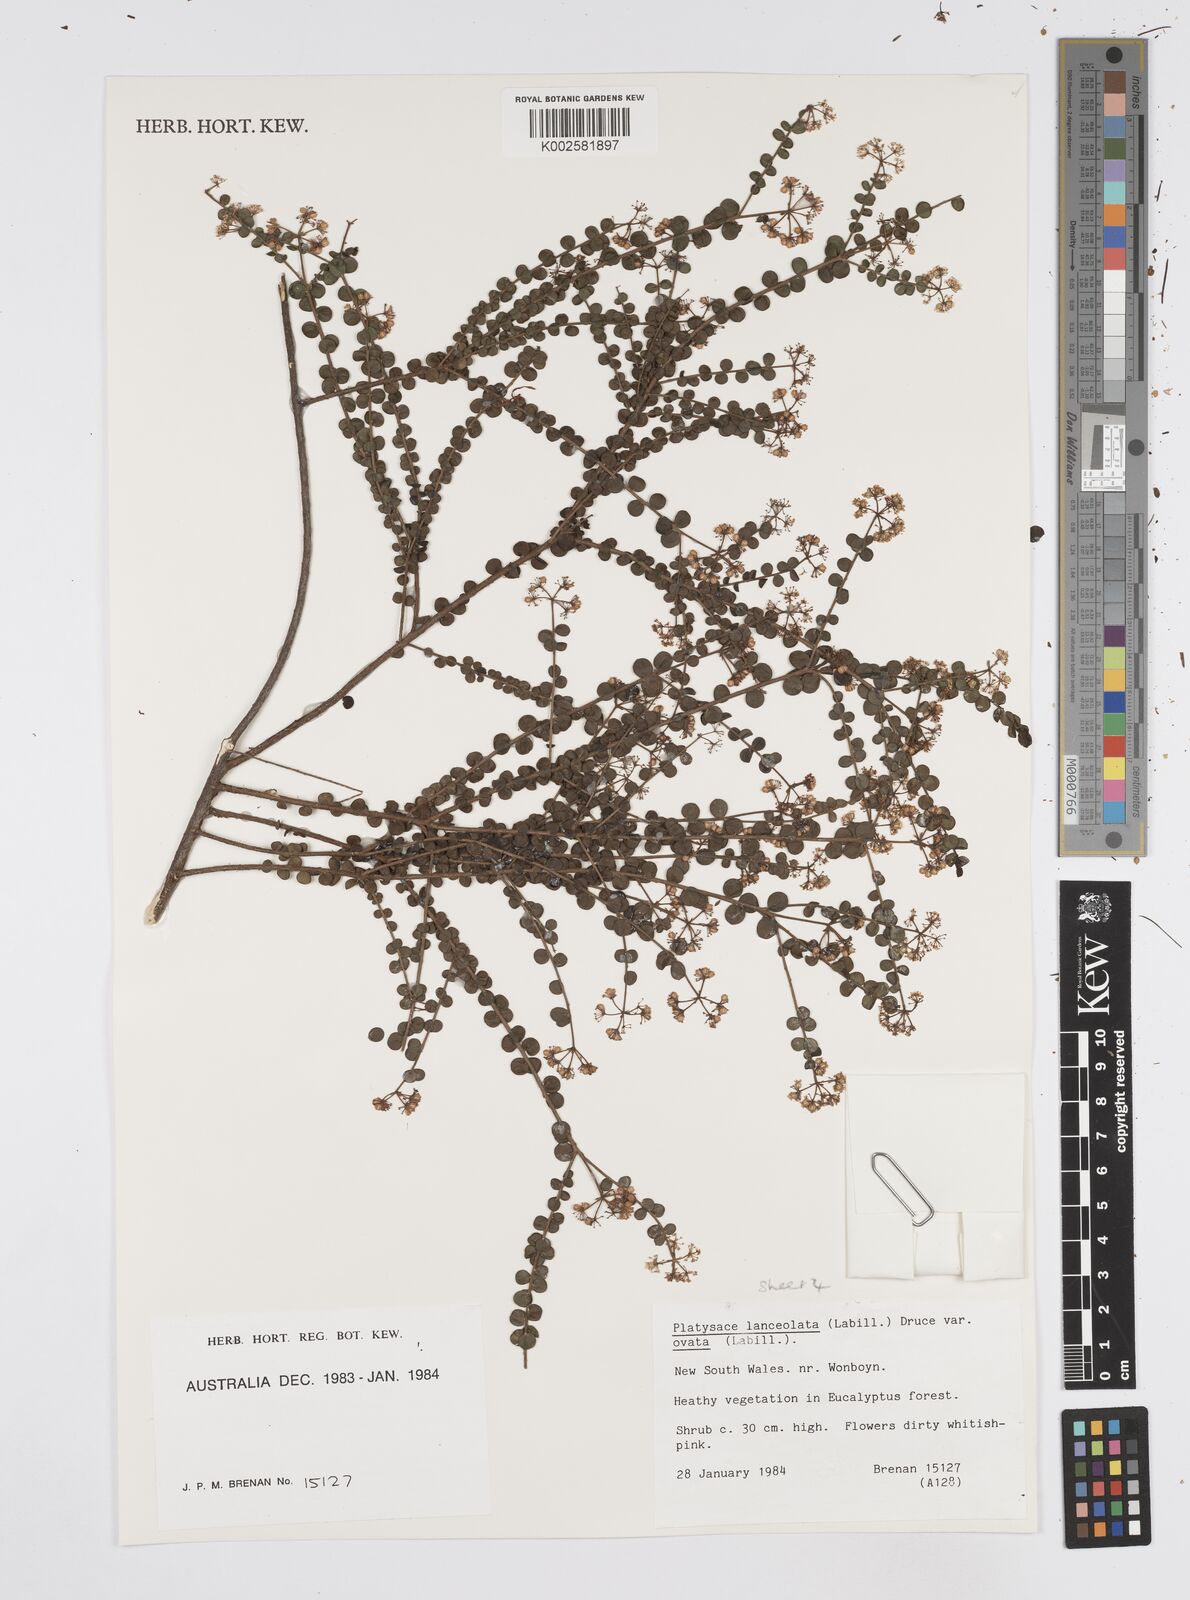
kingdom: Plantae
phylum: Tracheophyta
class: Magnoliopsida
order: Apiales
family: Apiaceae
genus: Platysace
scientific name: Platysace lanceolata
